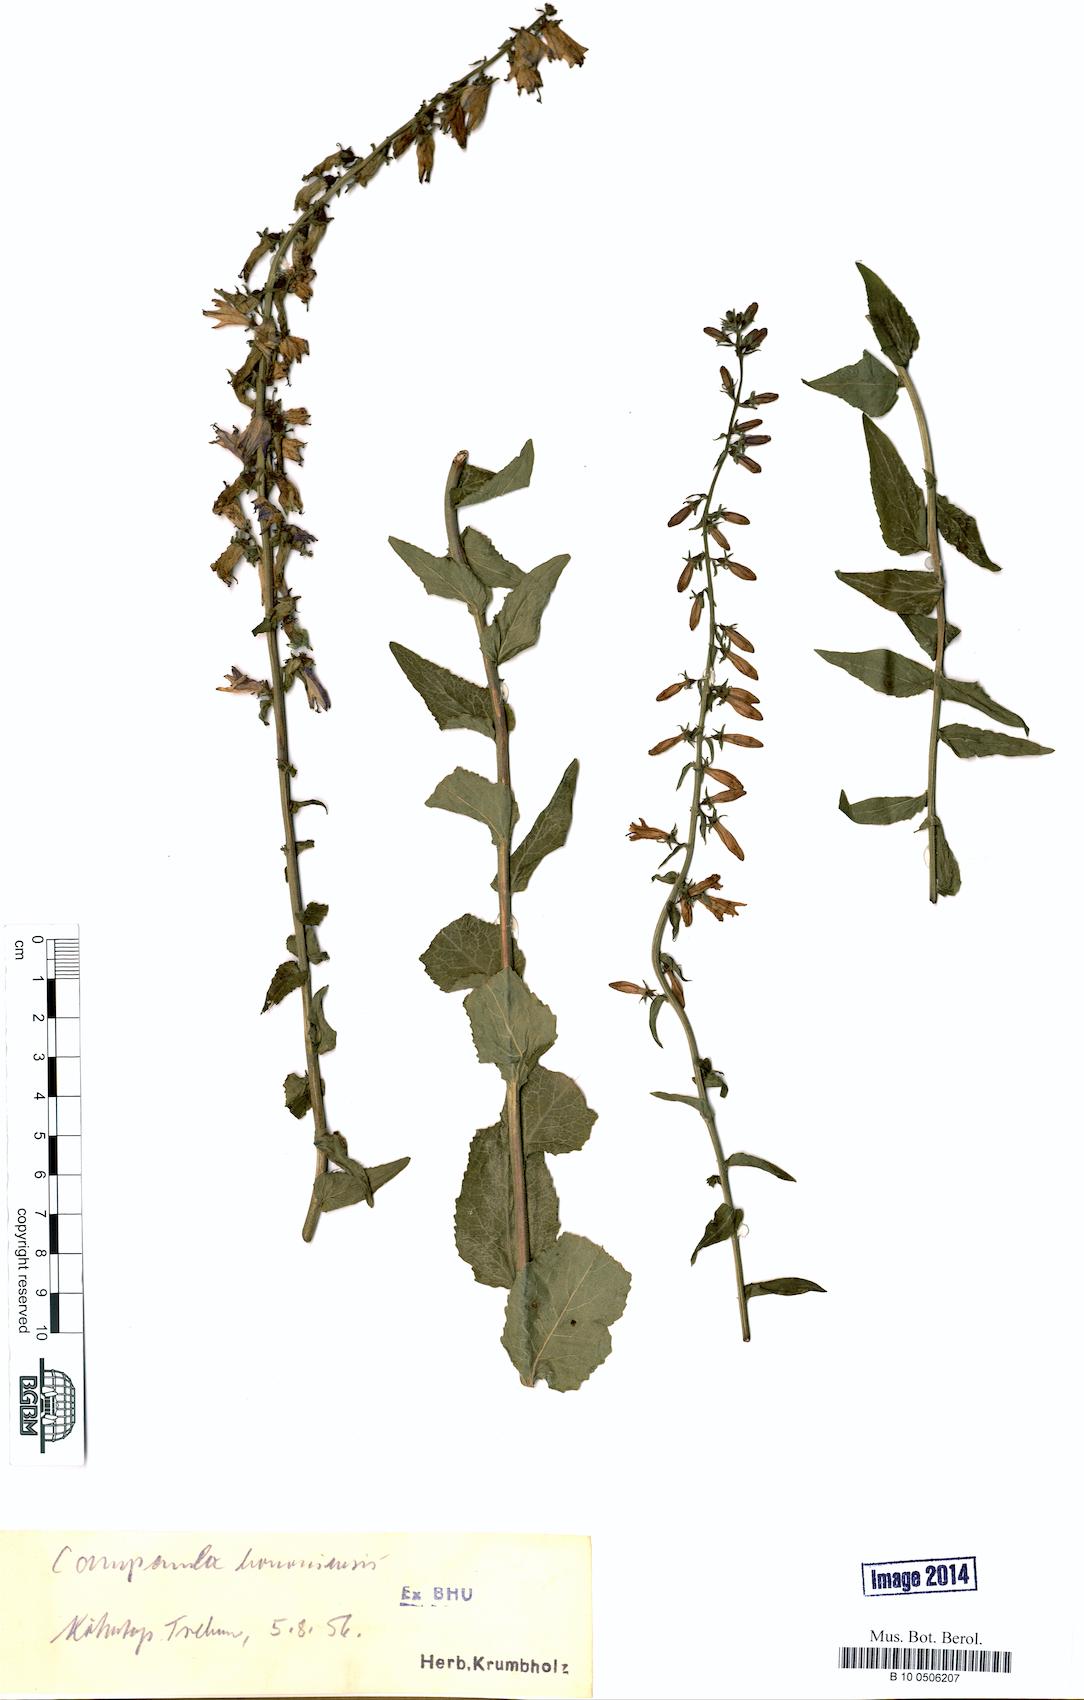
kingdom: Plantae
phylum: Tracheophyta
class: Magnoliopsida
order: Asterales
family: Campanulaceae
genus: Campanula
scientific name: Campanula bononiensis
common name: Pale bellflower
